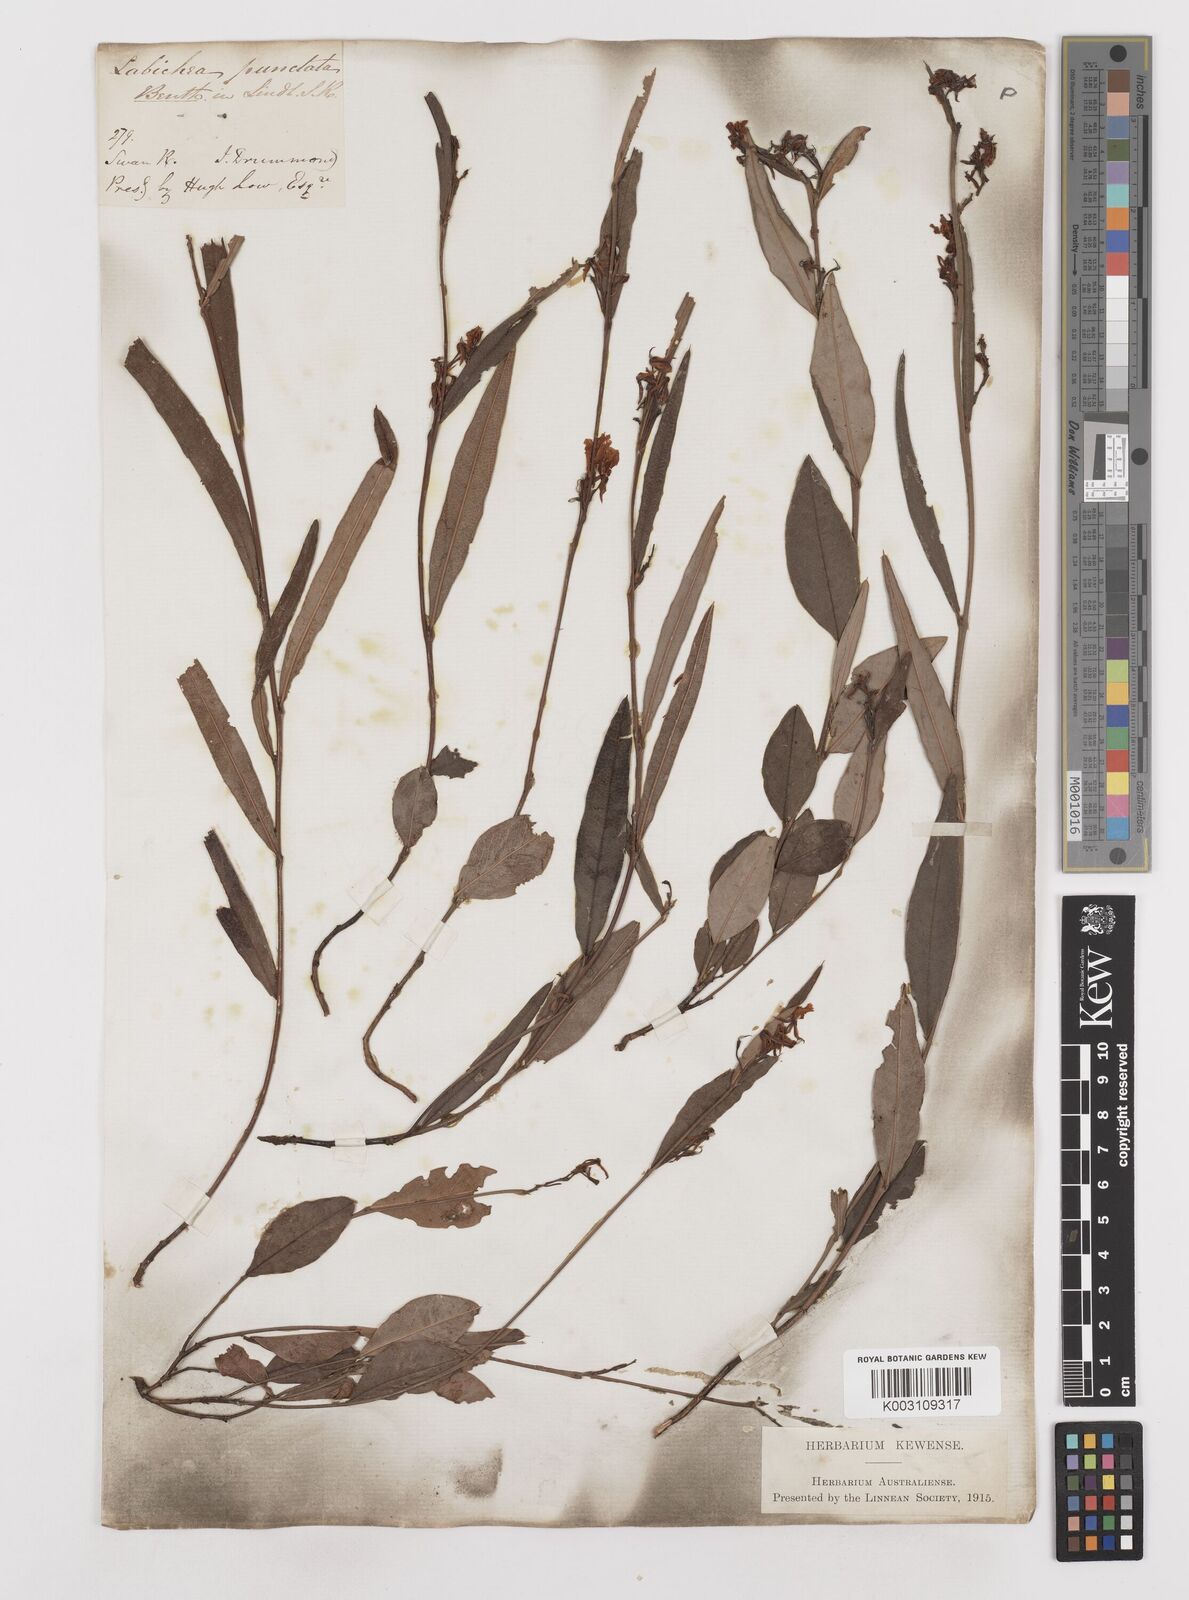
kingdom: Plantae
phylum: Tracheophyta
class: Magnoliopsida
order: Fabales
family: Fabaceae
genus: Labichea
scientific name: Labichea punctata
